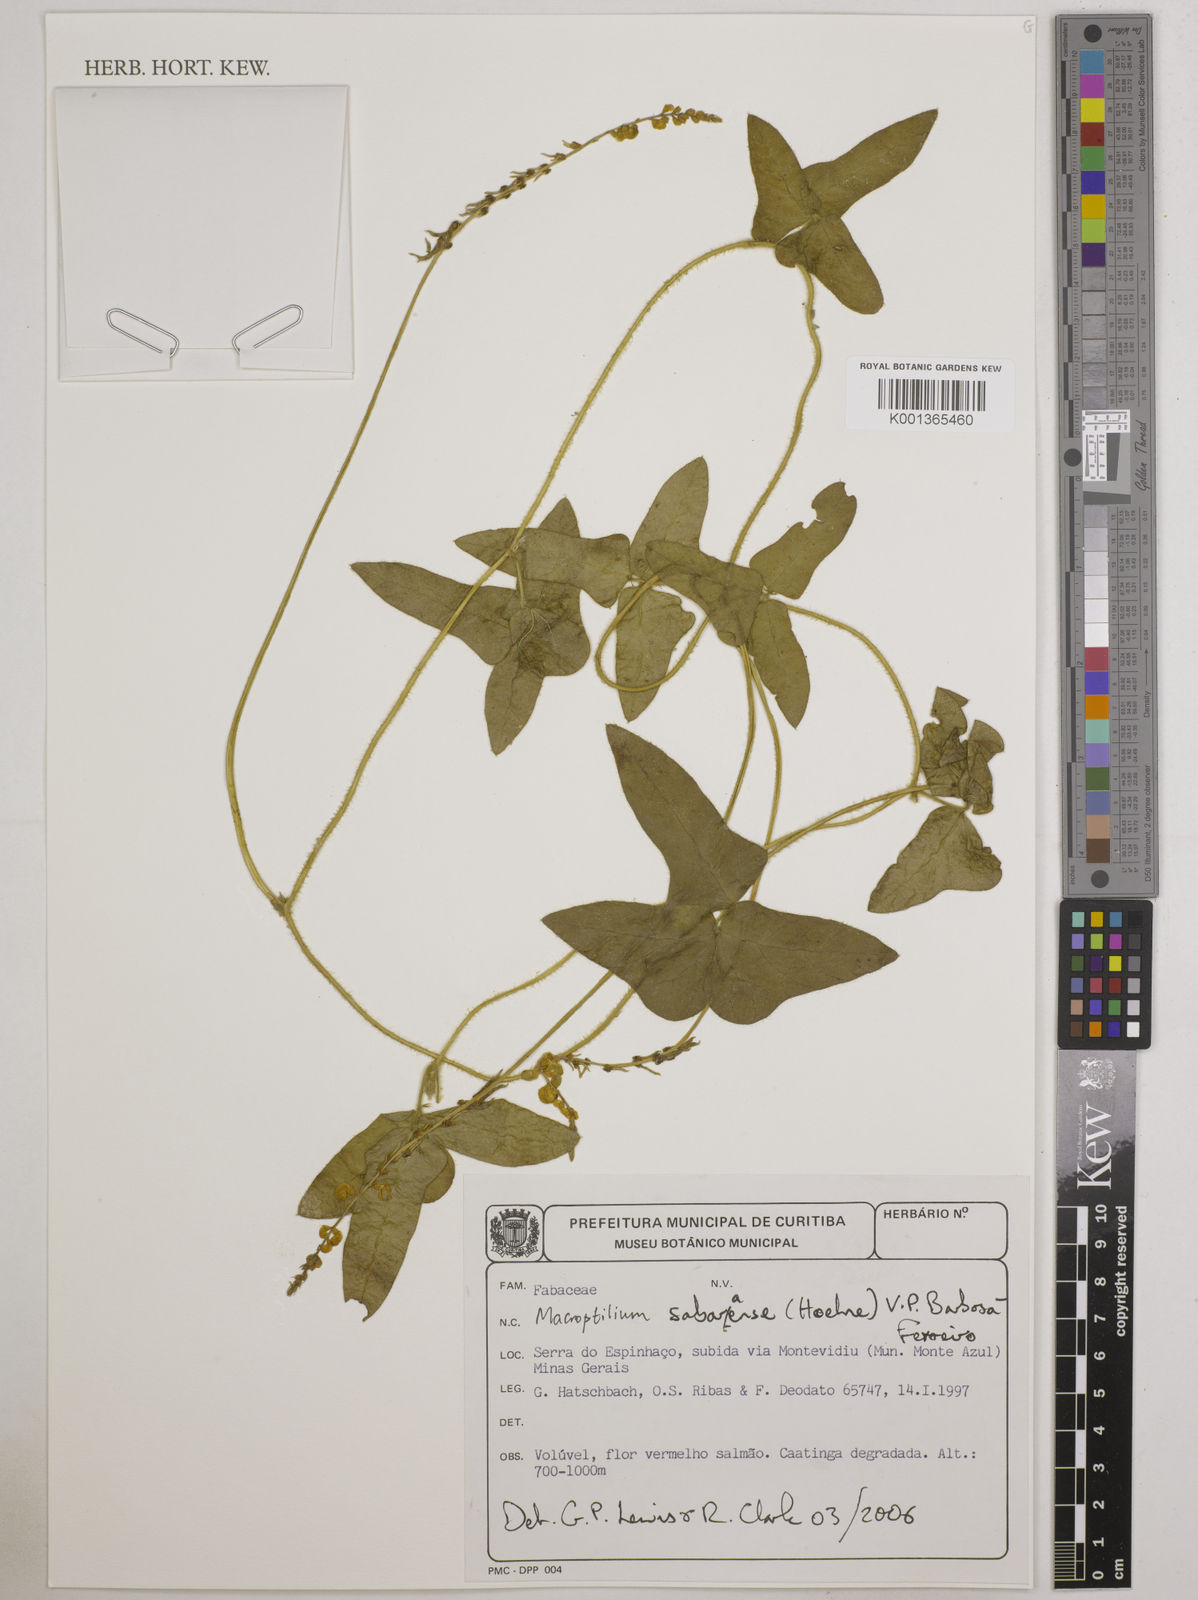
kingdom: Plantae
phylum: Tracheophyta
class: Magnoliopsida
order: Fabales
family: Fabaceae
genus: Macroptilium
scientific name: Macroptilium sabaraense
